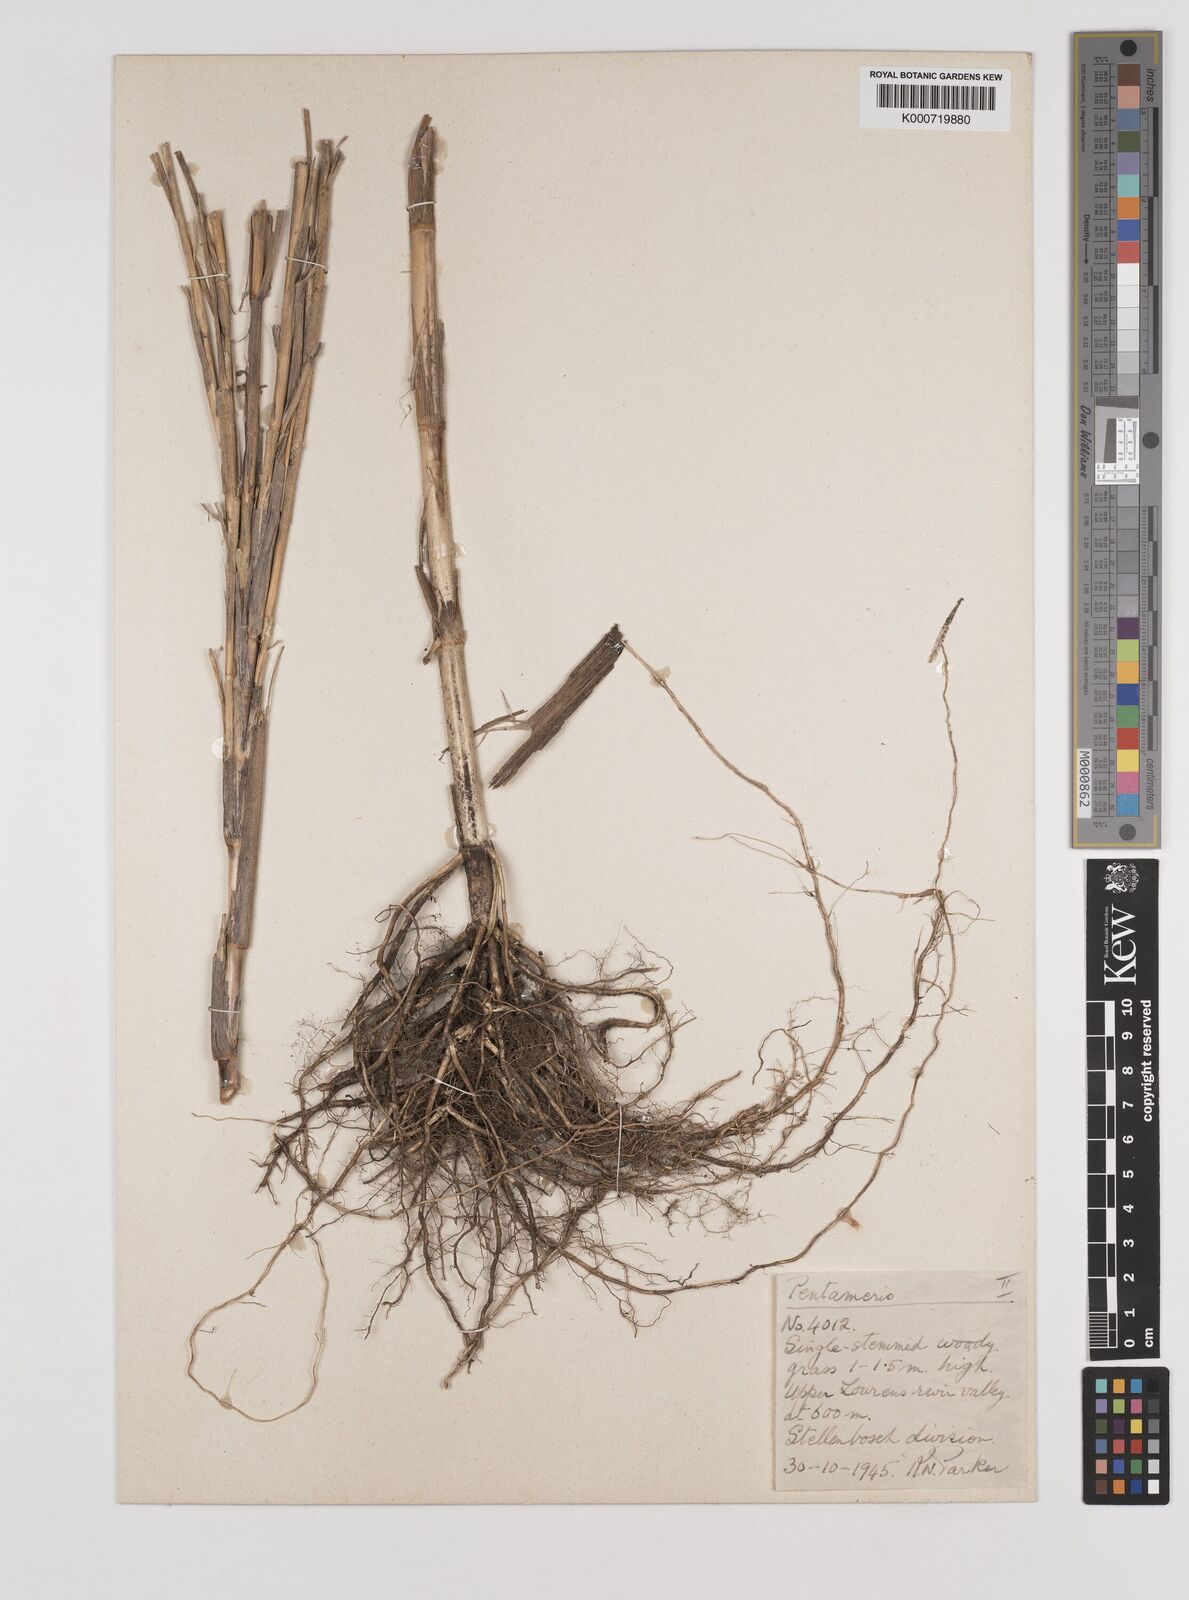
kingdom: Plantae
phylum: Tracheophyta
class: Liliopsida
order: Poales
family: Poaceae
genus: Pentameris
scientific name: Pentameris thuarii
